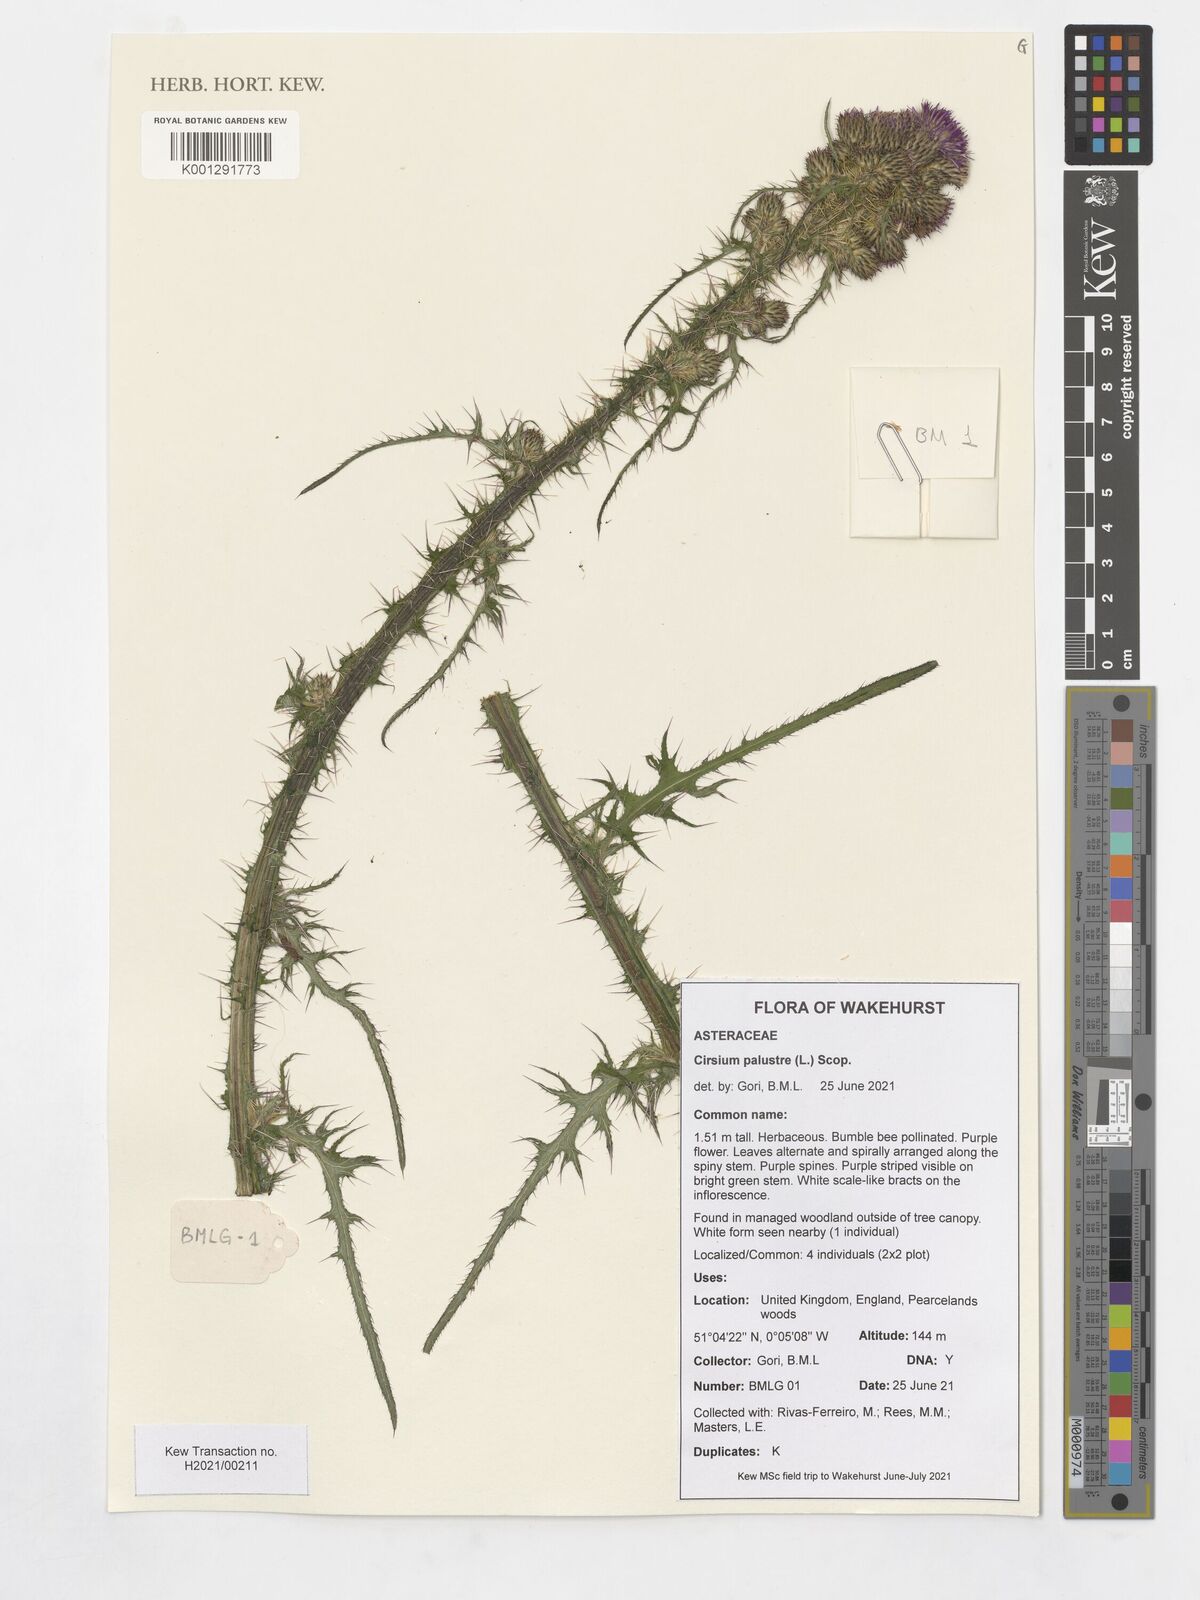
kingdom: Plantae
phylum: Tracheophyta
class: Magnoliopsida
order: Asterales
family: Asteraceae
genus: Cirsium
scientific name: Cirsium palustre
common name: Marsh thistle
